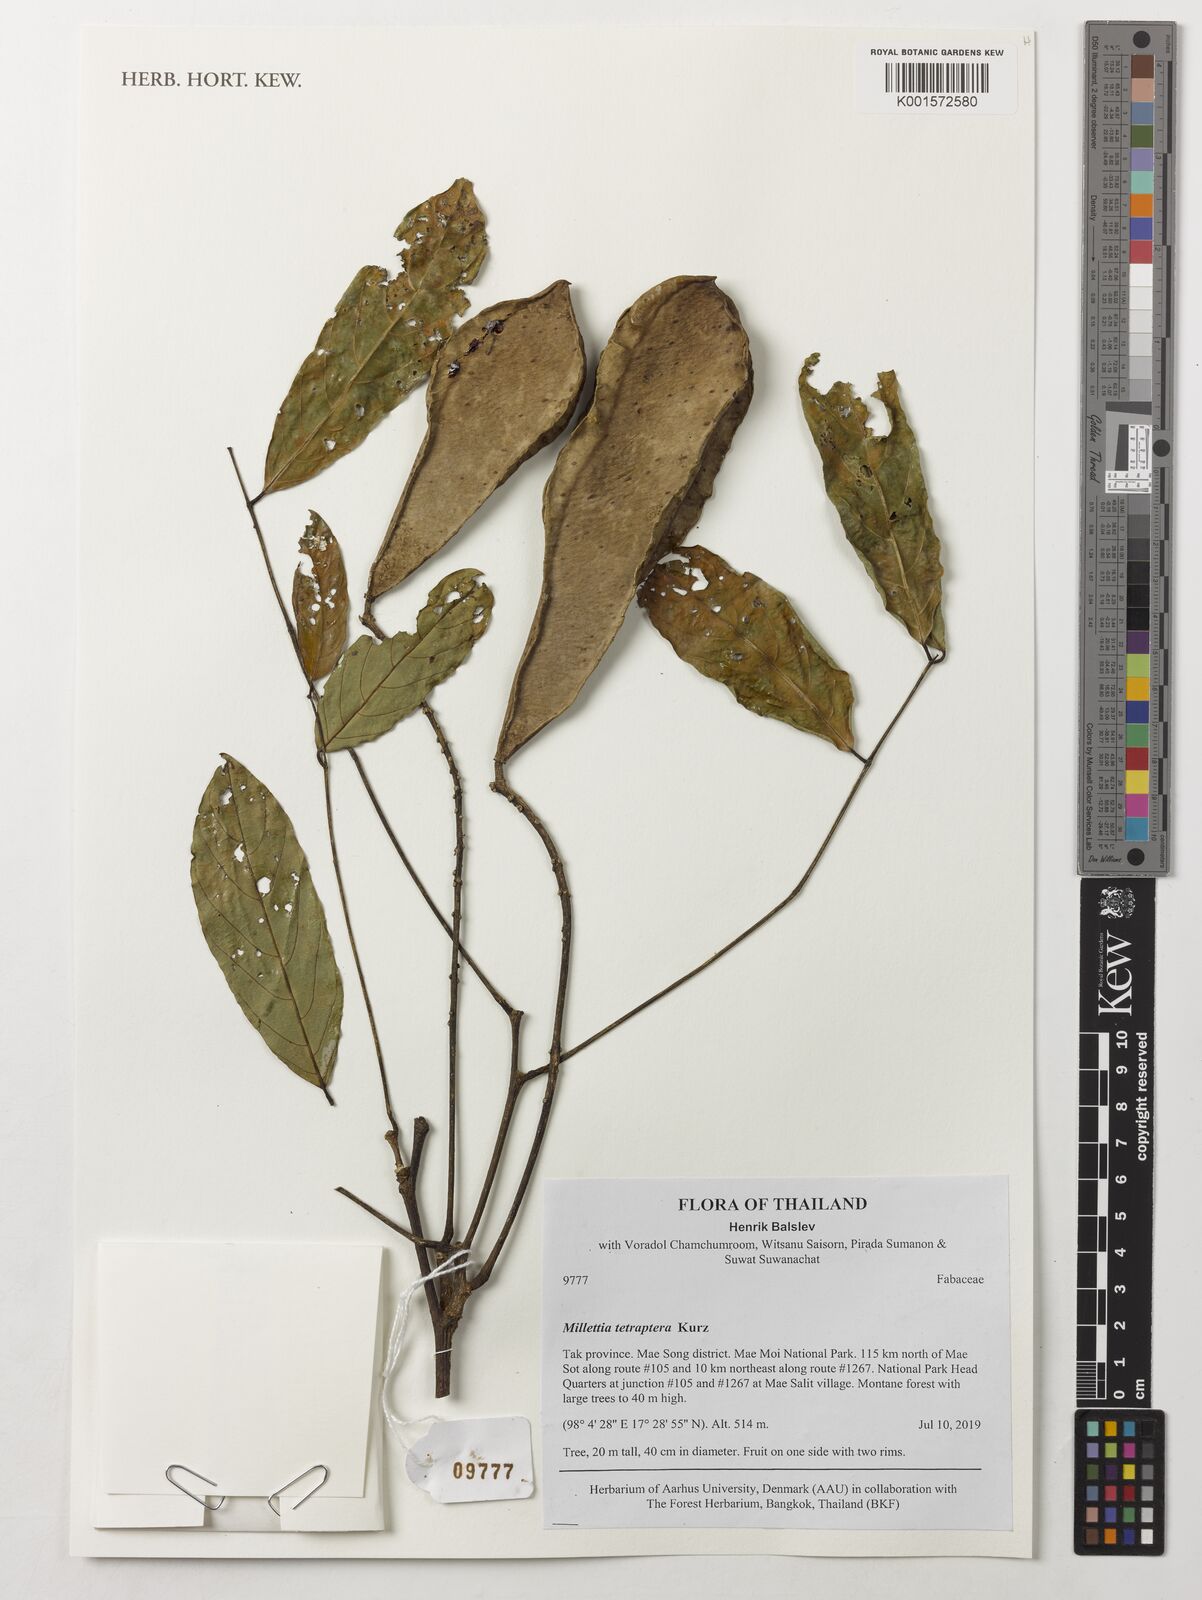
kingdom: Plantae
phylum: Tracheophyta
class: Magnoliopsida
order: Fabales
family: Fabaceae
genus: Millettia
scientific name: Millettia tetraptera
